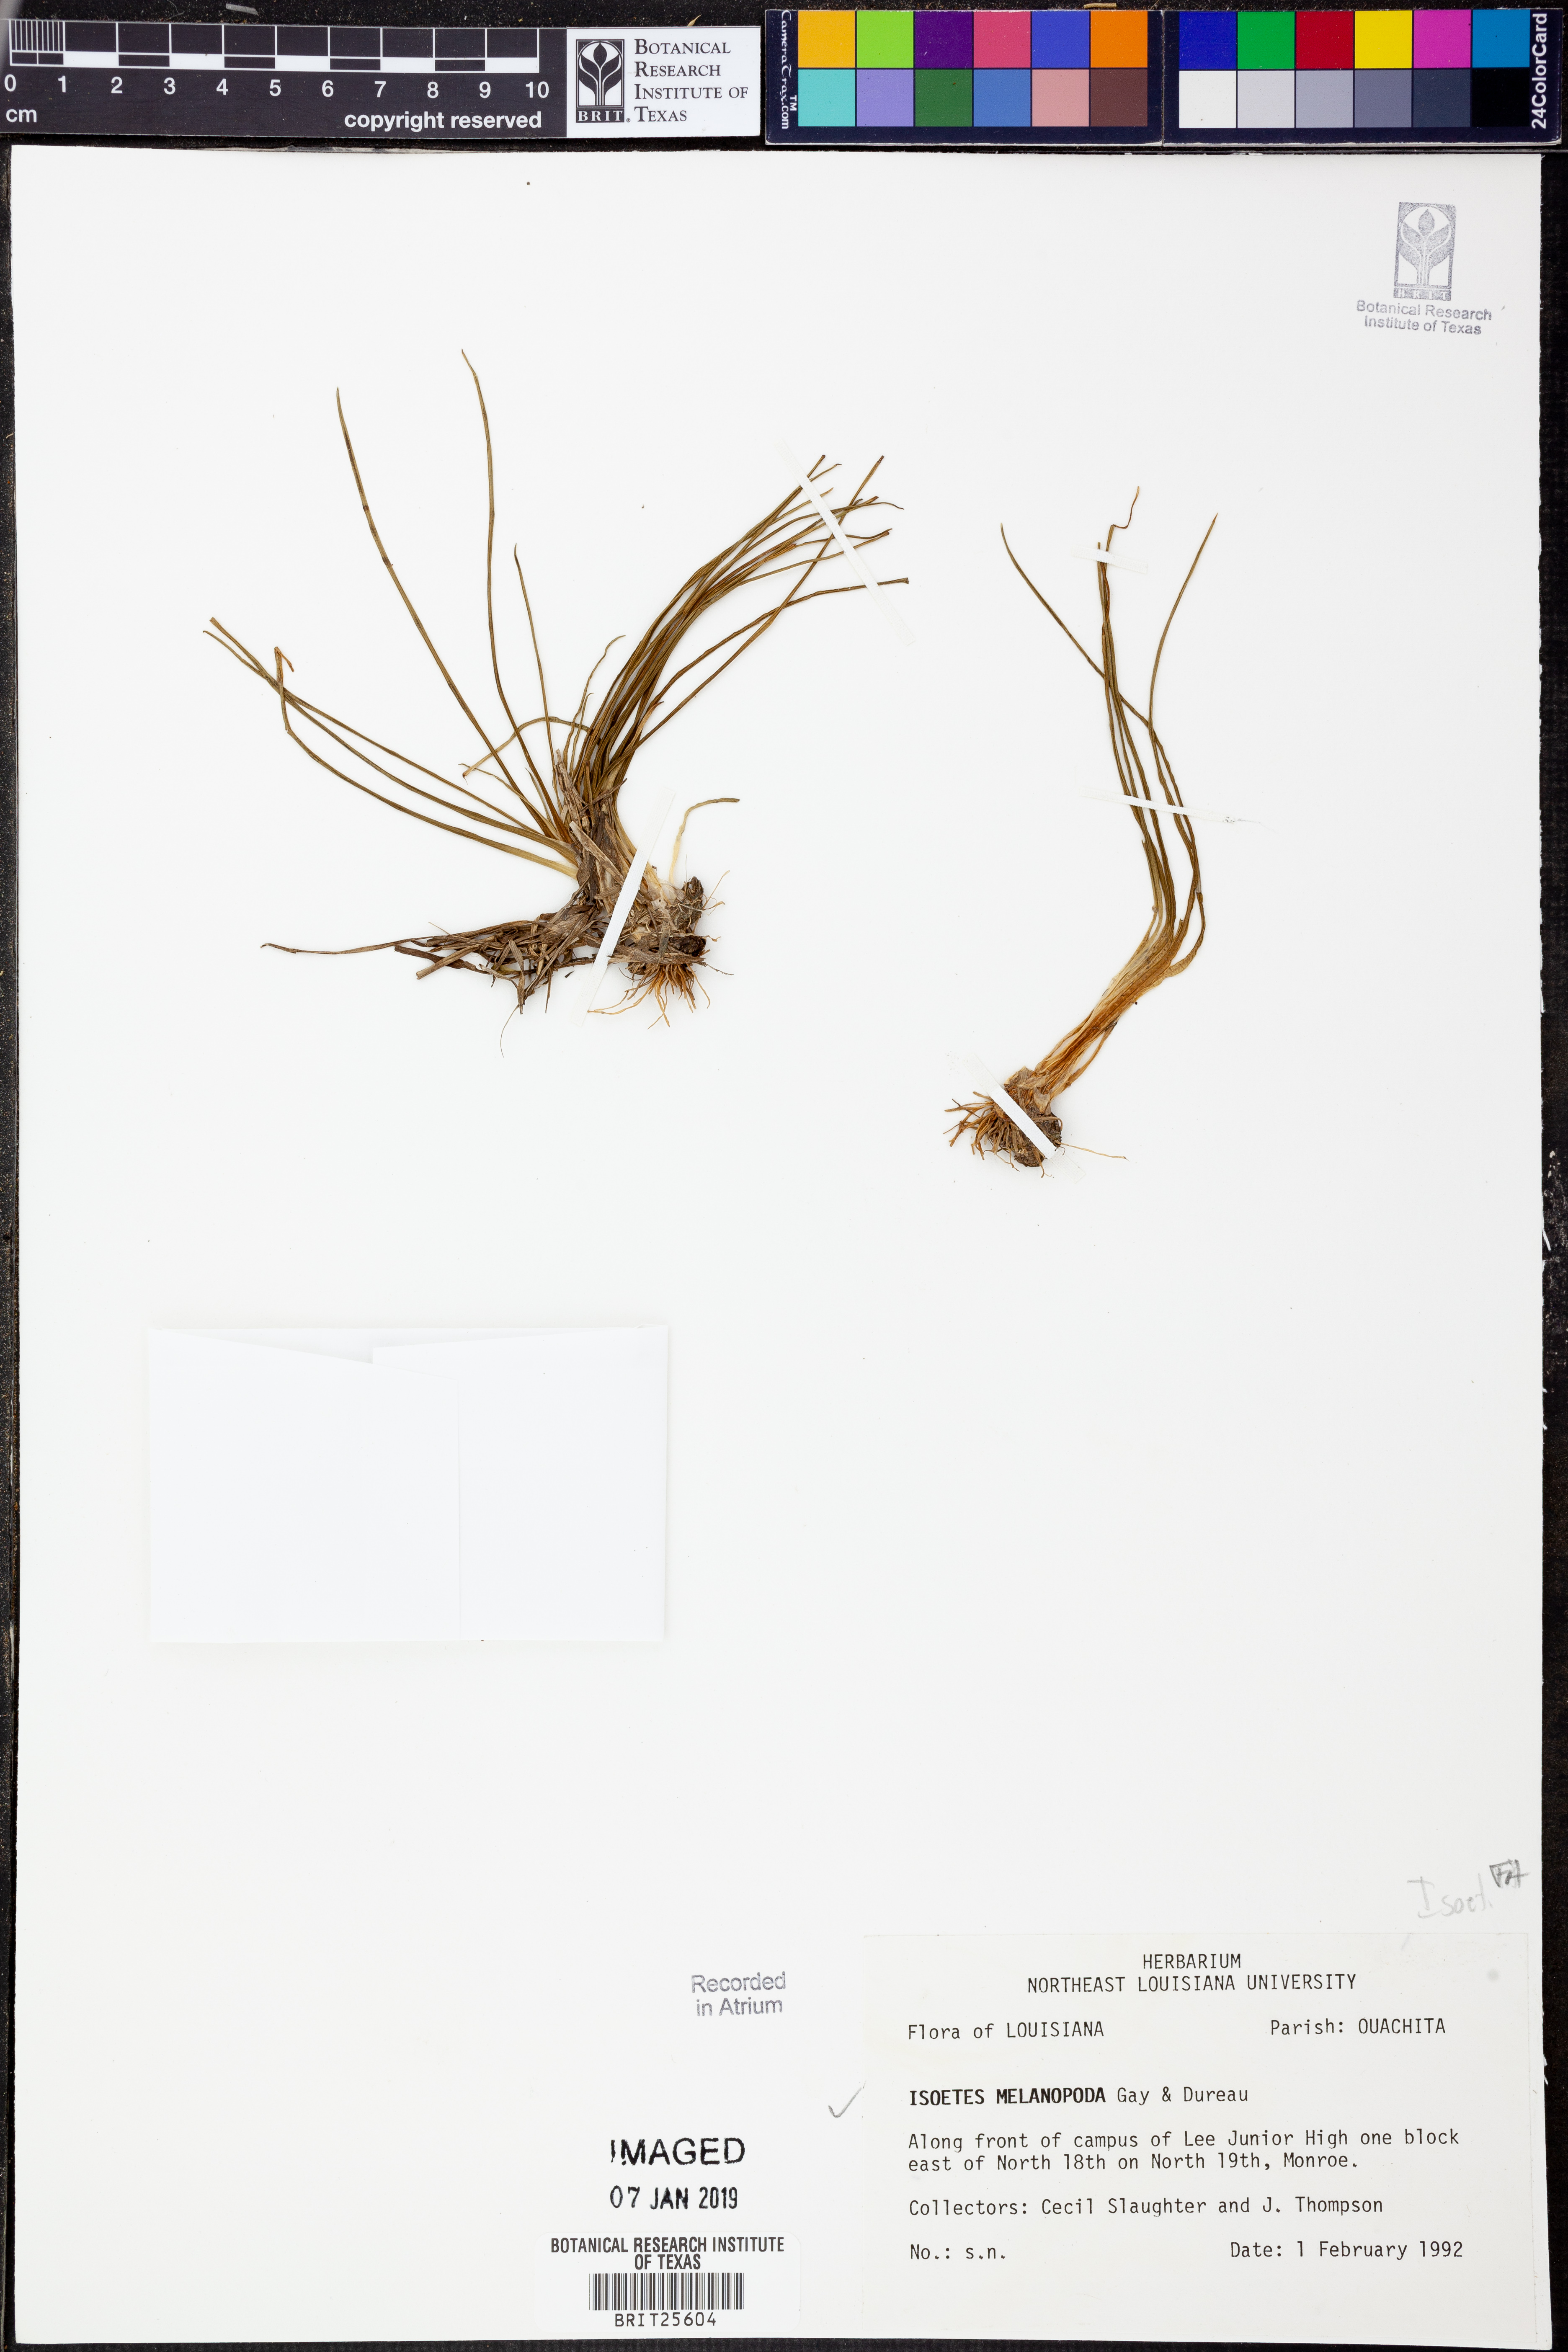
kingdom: Plantae
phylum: Tracheophyta
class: Lycopodiopsida
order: Isoetales
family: Isoetaceae
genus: Isoetes
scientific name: Isoetes melanopoda
